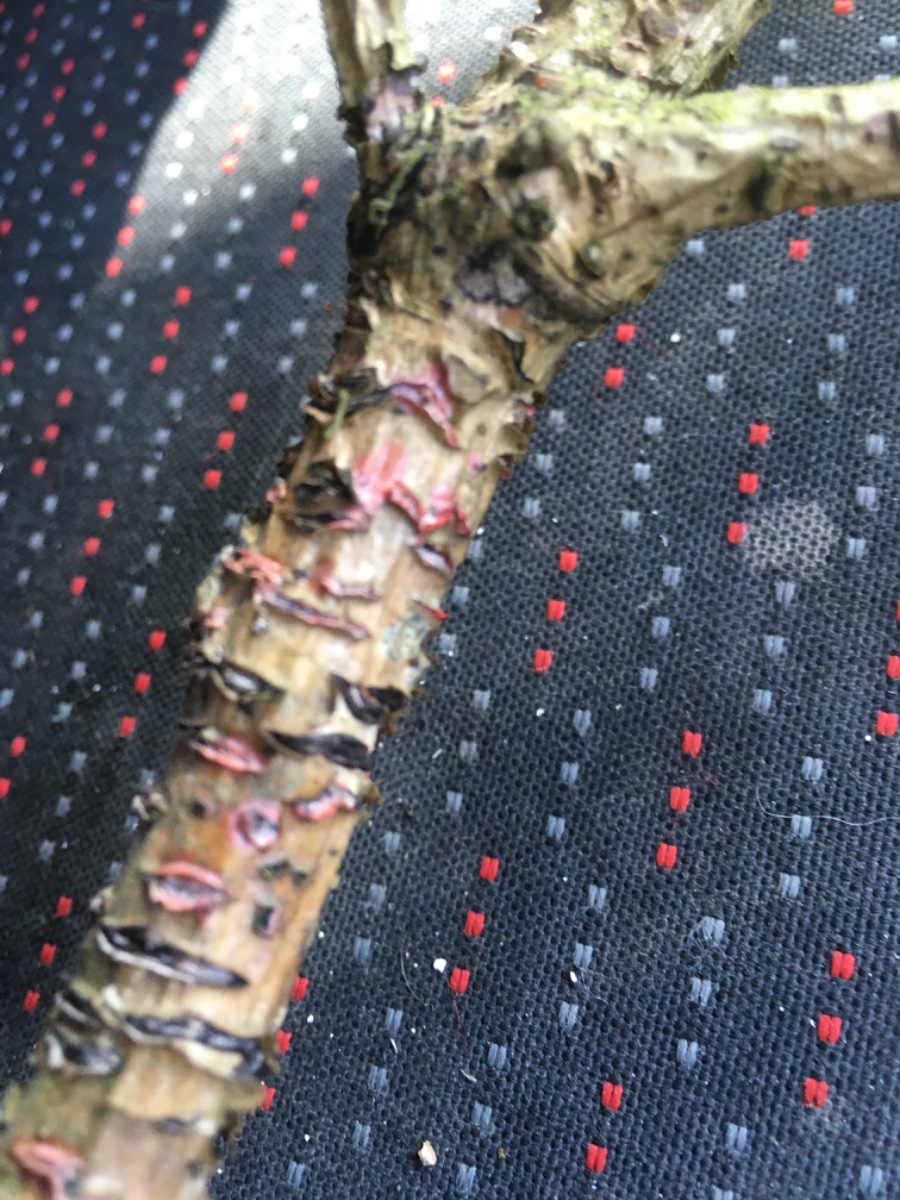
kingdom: Fungi
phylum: Basidiomycota
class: Agaricomycetes
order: Corticiales
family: Corticiaceae
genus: Marchandiomyces
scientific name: Marchandiomyces aurantioroseus
